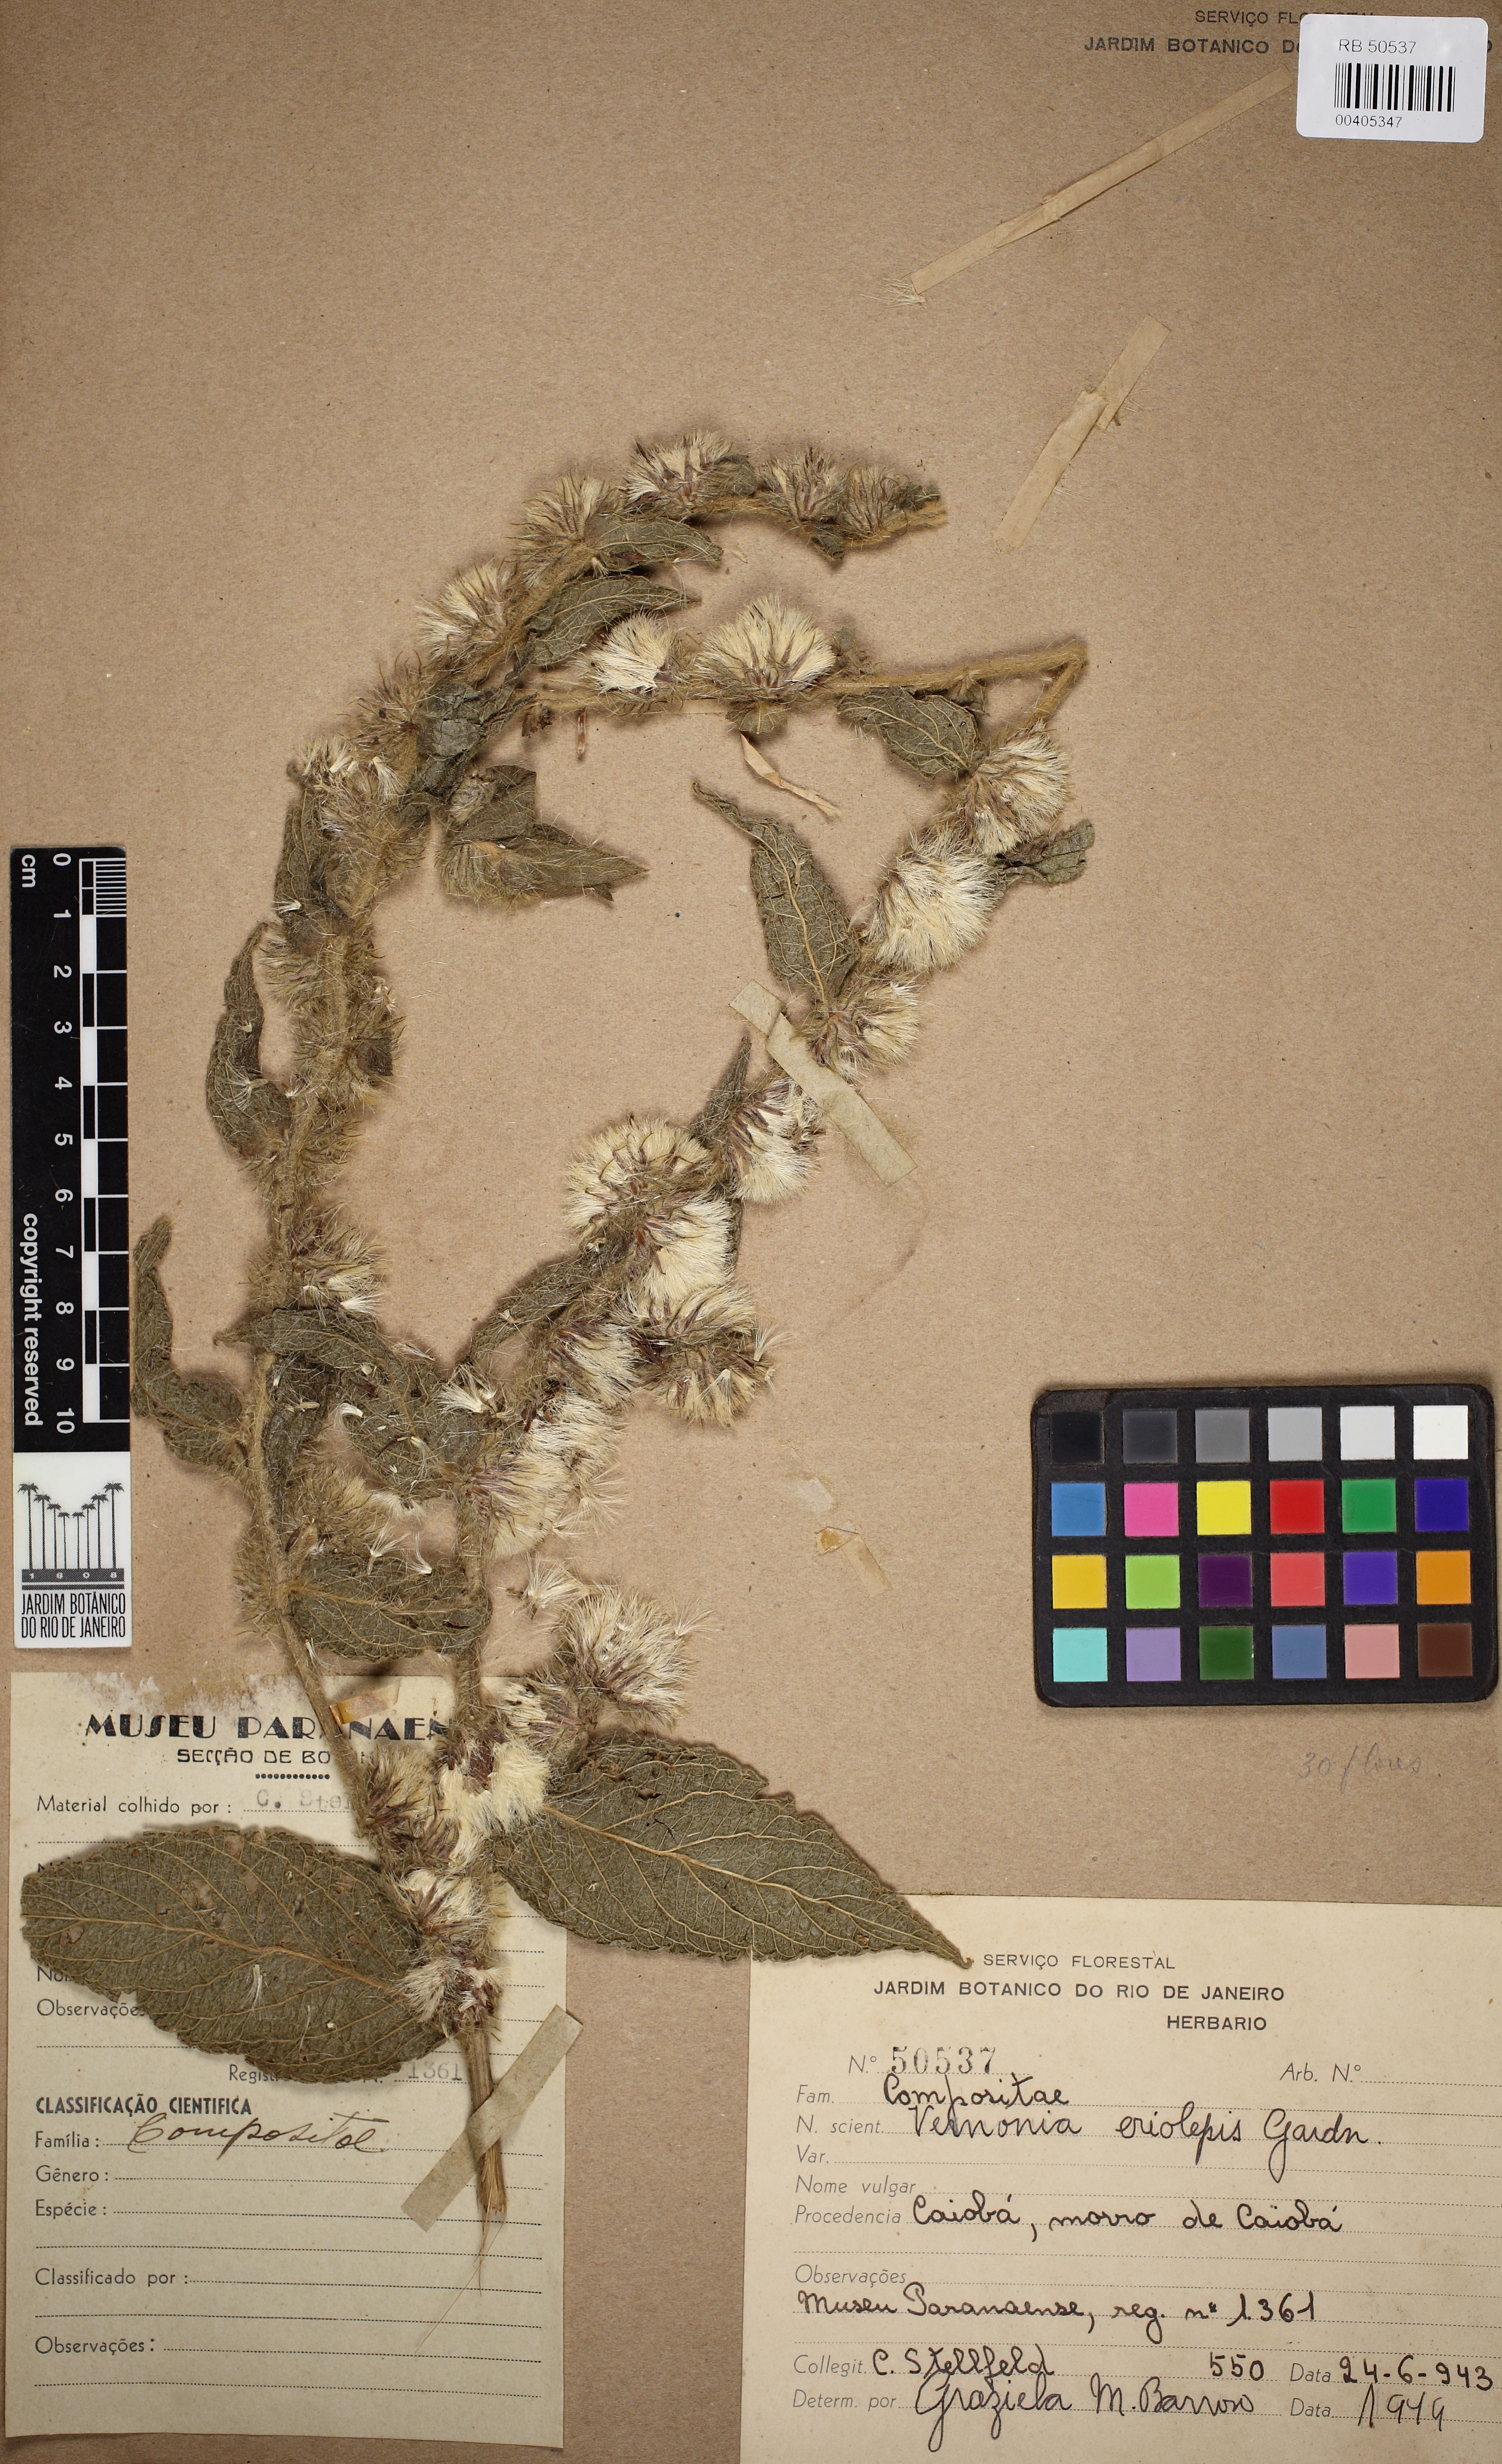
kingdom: Plantae
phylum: Tracheophyta
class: Magnoliopsida
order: Asterales
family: Asteraceae
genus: Lepidaploa
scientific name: Lepidaploa eriolepis
